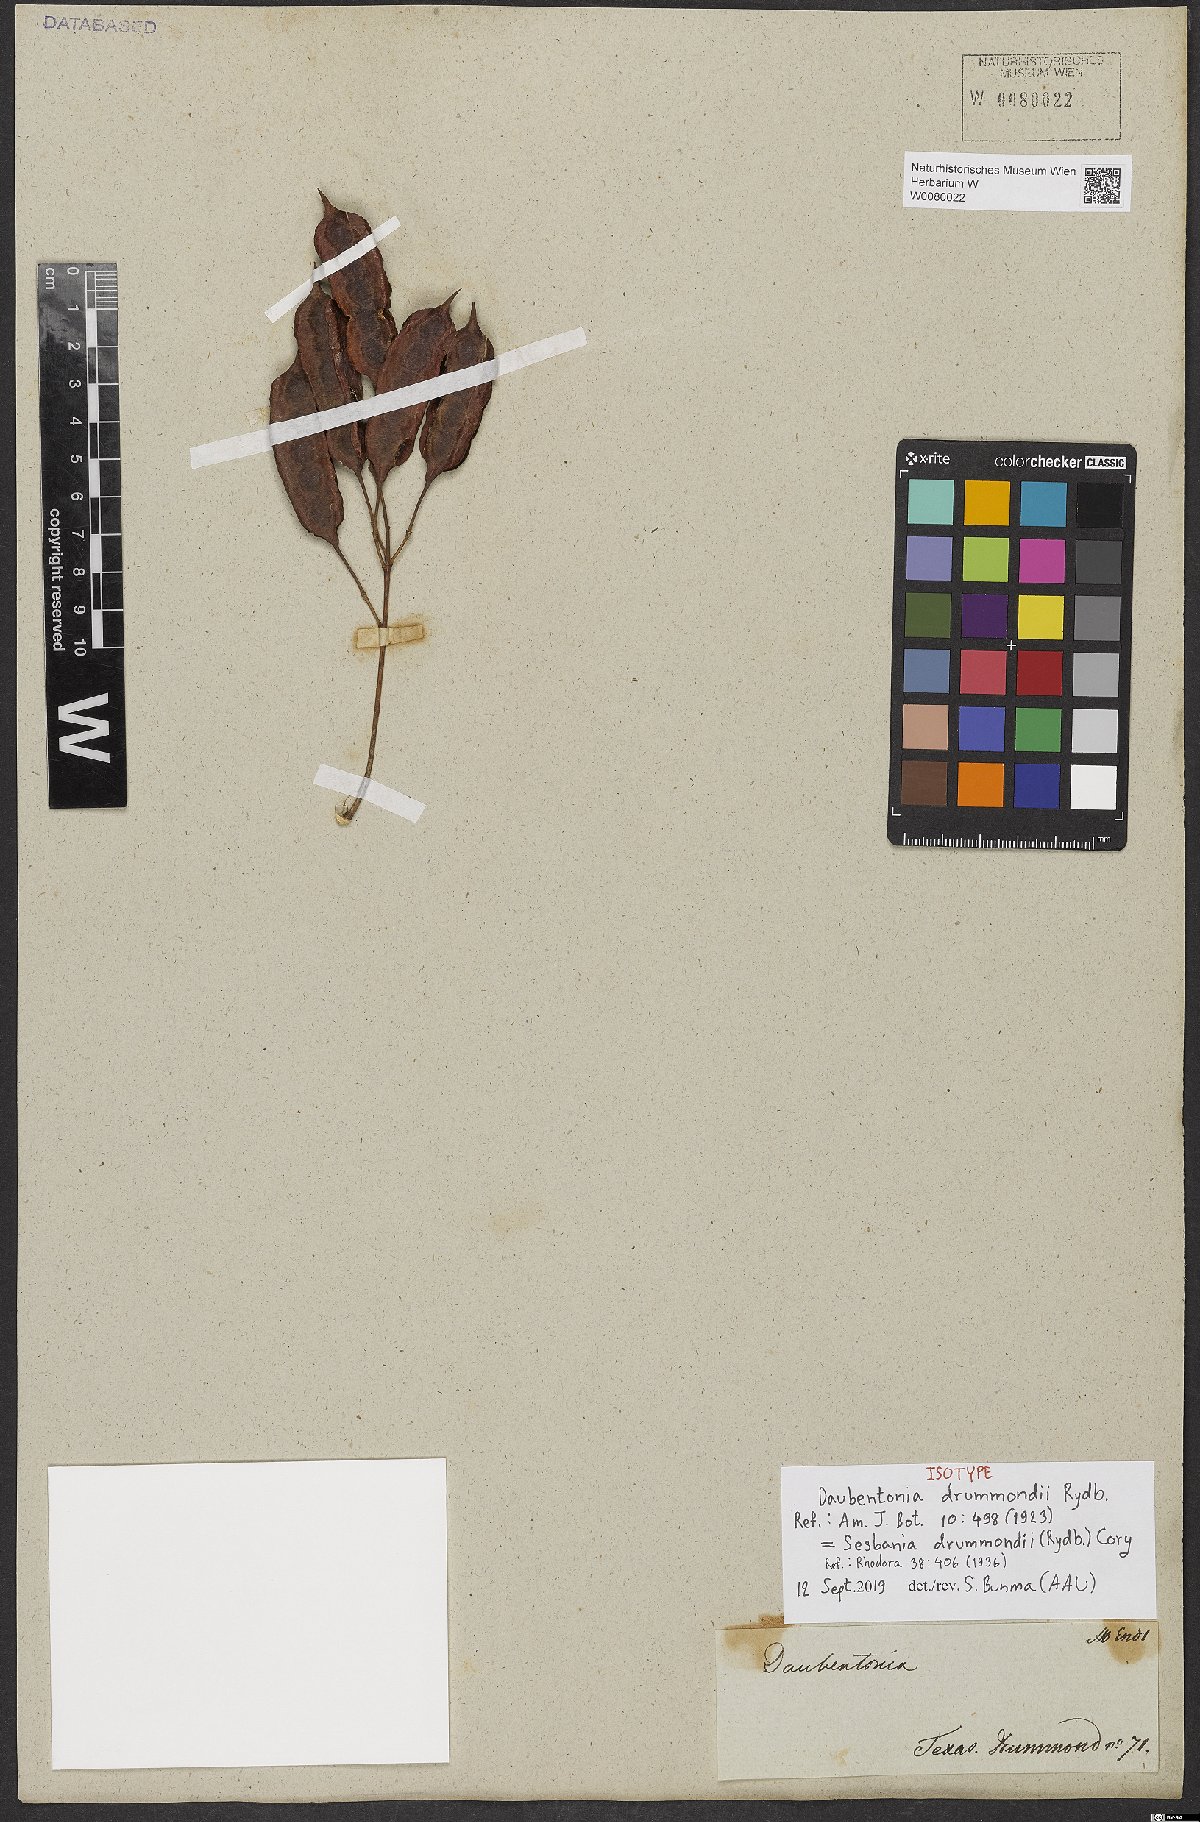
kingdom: Plantae
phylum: Tracheophyta
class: Magnoliopsida
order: Fabales
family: Fabaceae
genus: Sesbania
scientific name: Sesbania drummondii
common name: Poison-bean
